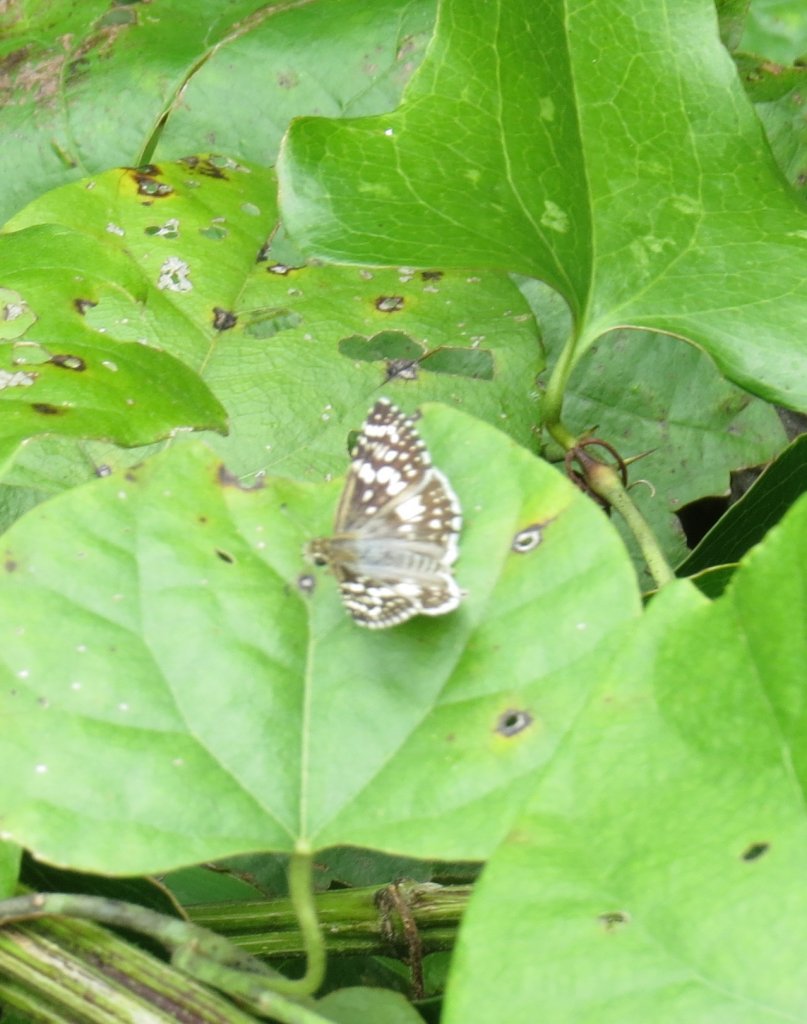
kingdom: Animalia
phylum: Arthropoda
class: Insecta
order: Lepidoptera
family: Hesperiidae
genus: Pyrgus
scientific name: Pyrgus communis
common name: White Checkered-Skipper
